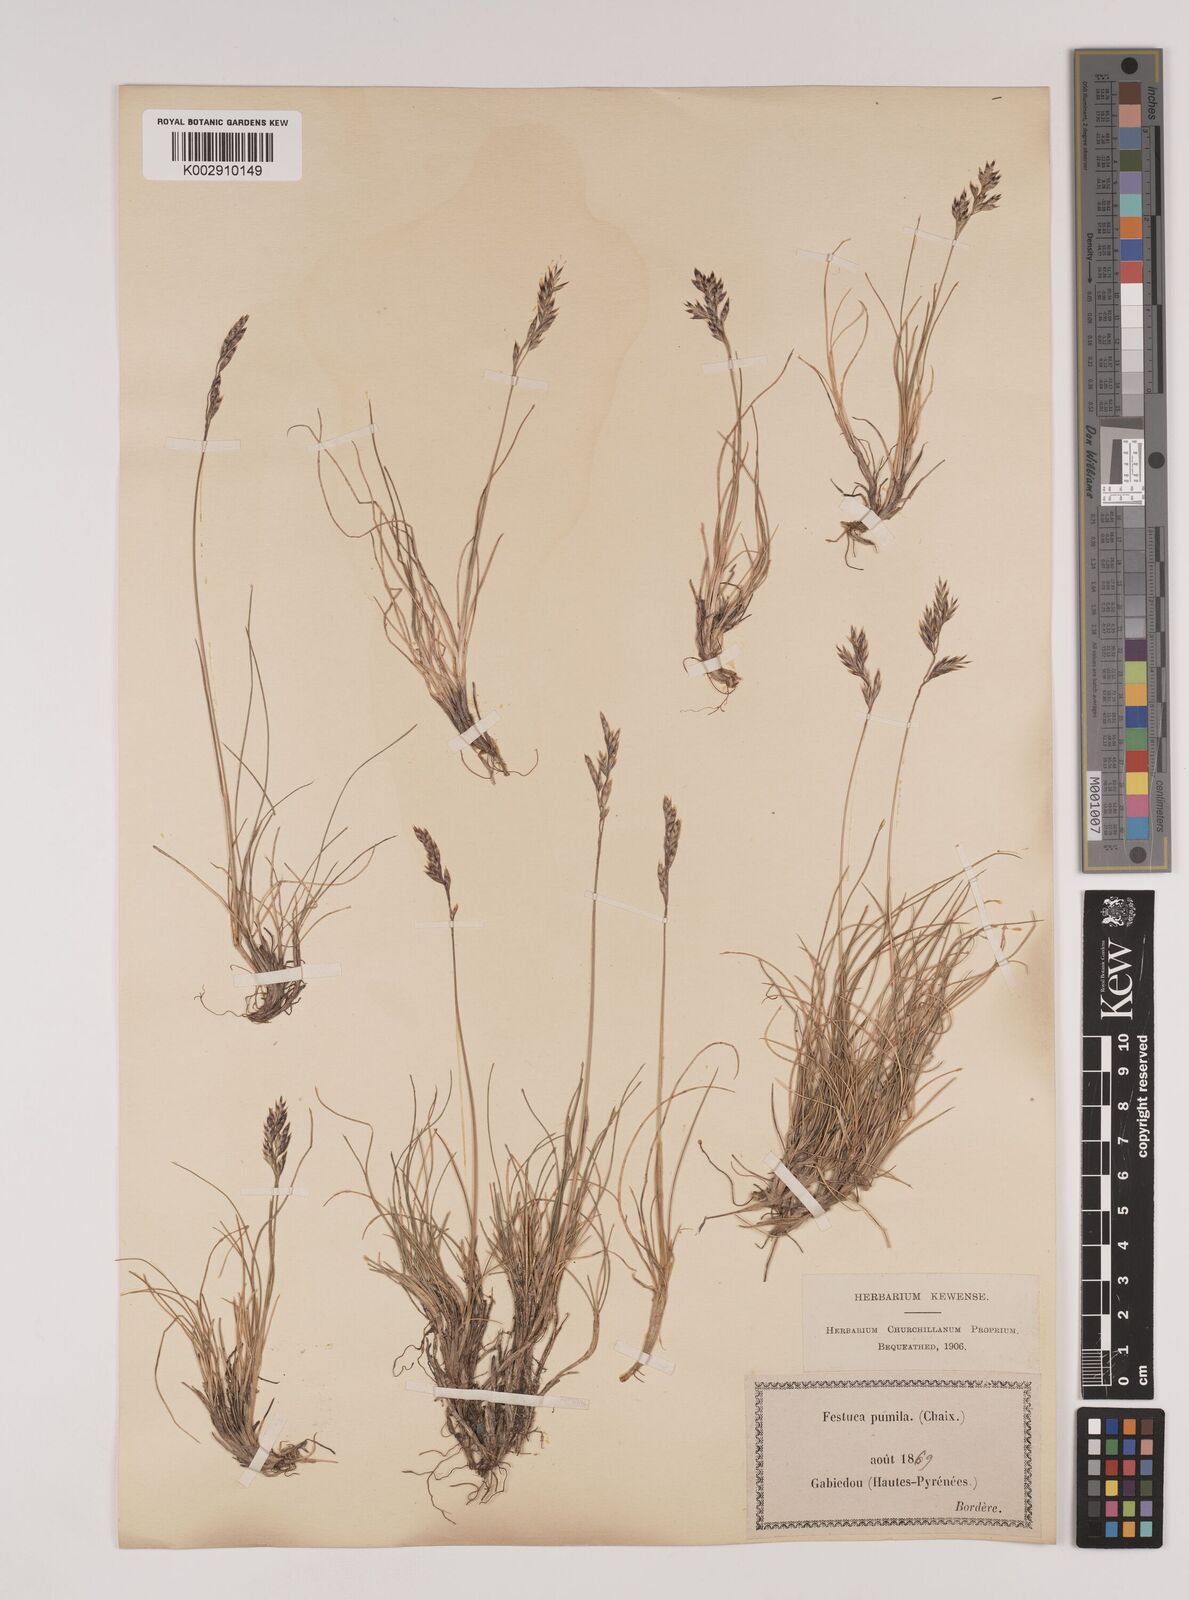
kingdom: Plantae
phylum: Tracheophyta
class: Liliopsida
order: Poales
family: Poaceae
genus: Festuca
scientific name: Festuca
